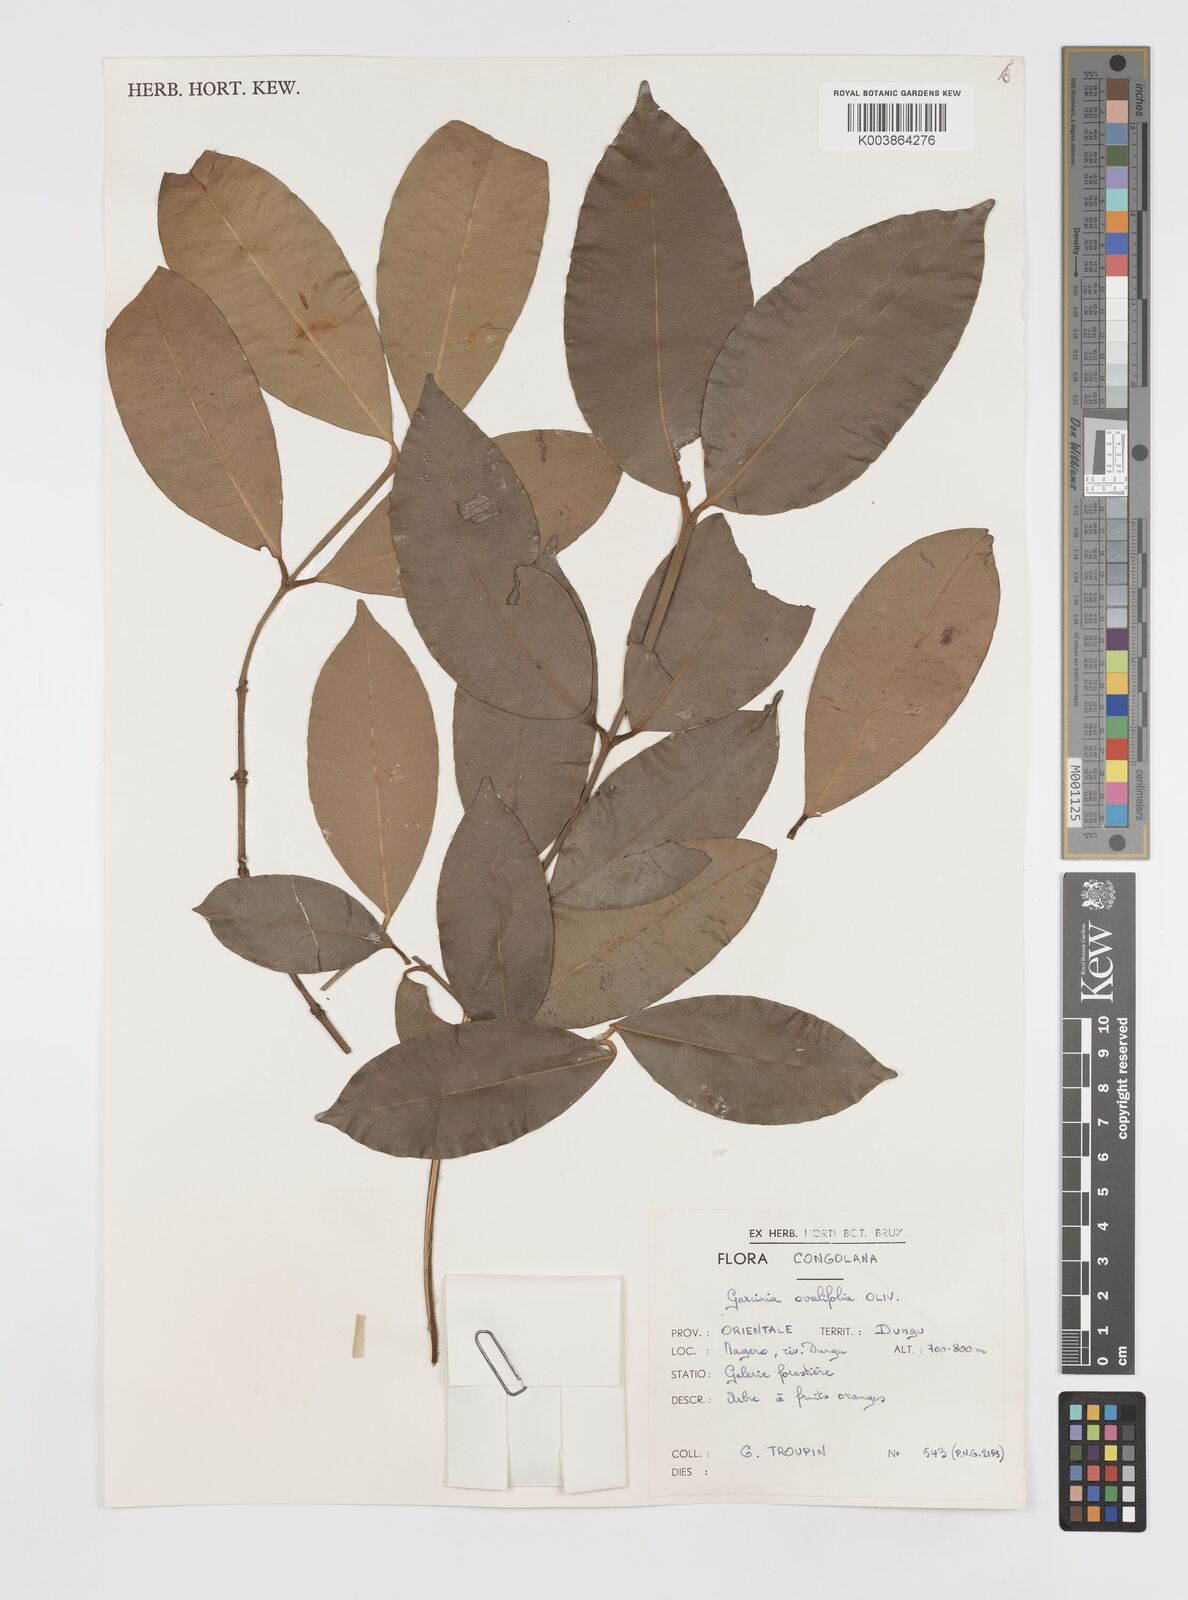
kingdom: Plantae
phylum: Tracheophyta
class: Magnoliopsida
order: Malpighiales
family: Clusiaceae
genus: Garcinia
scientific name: Garcinia ovalifolia
